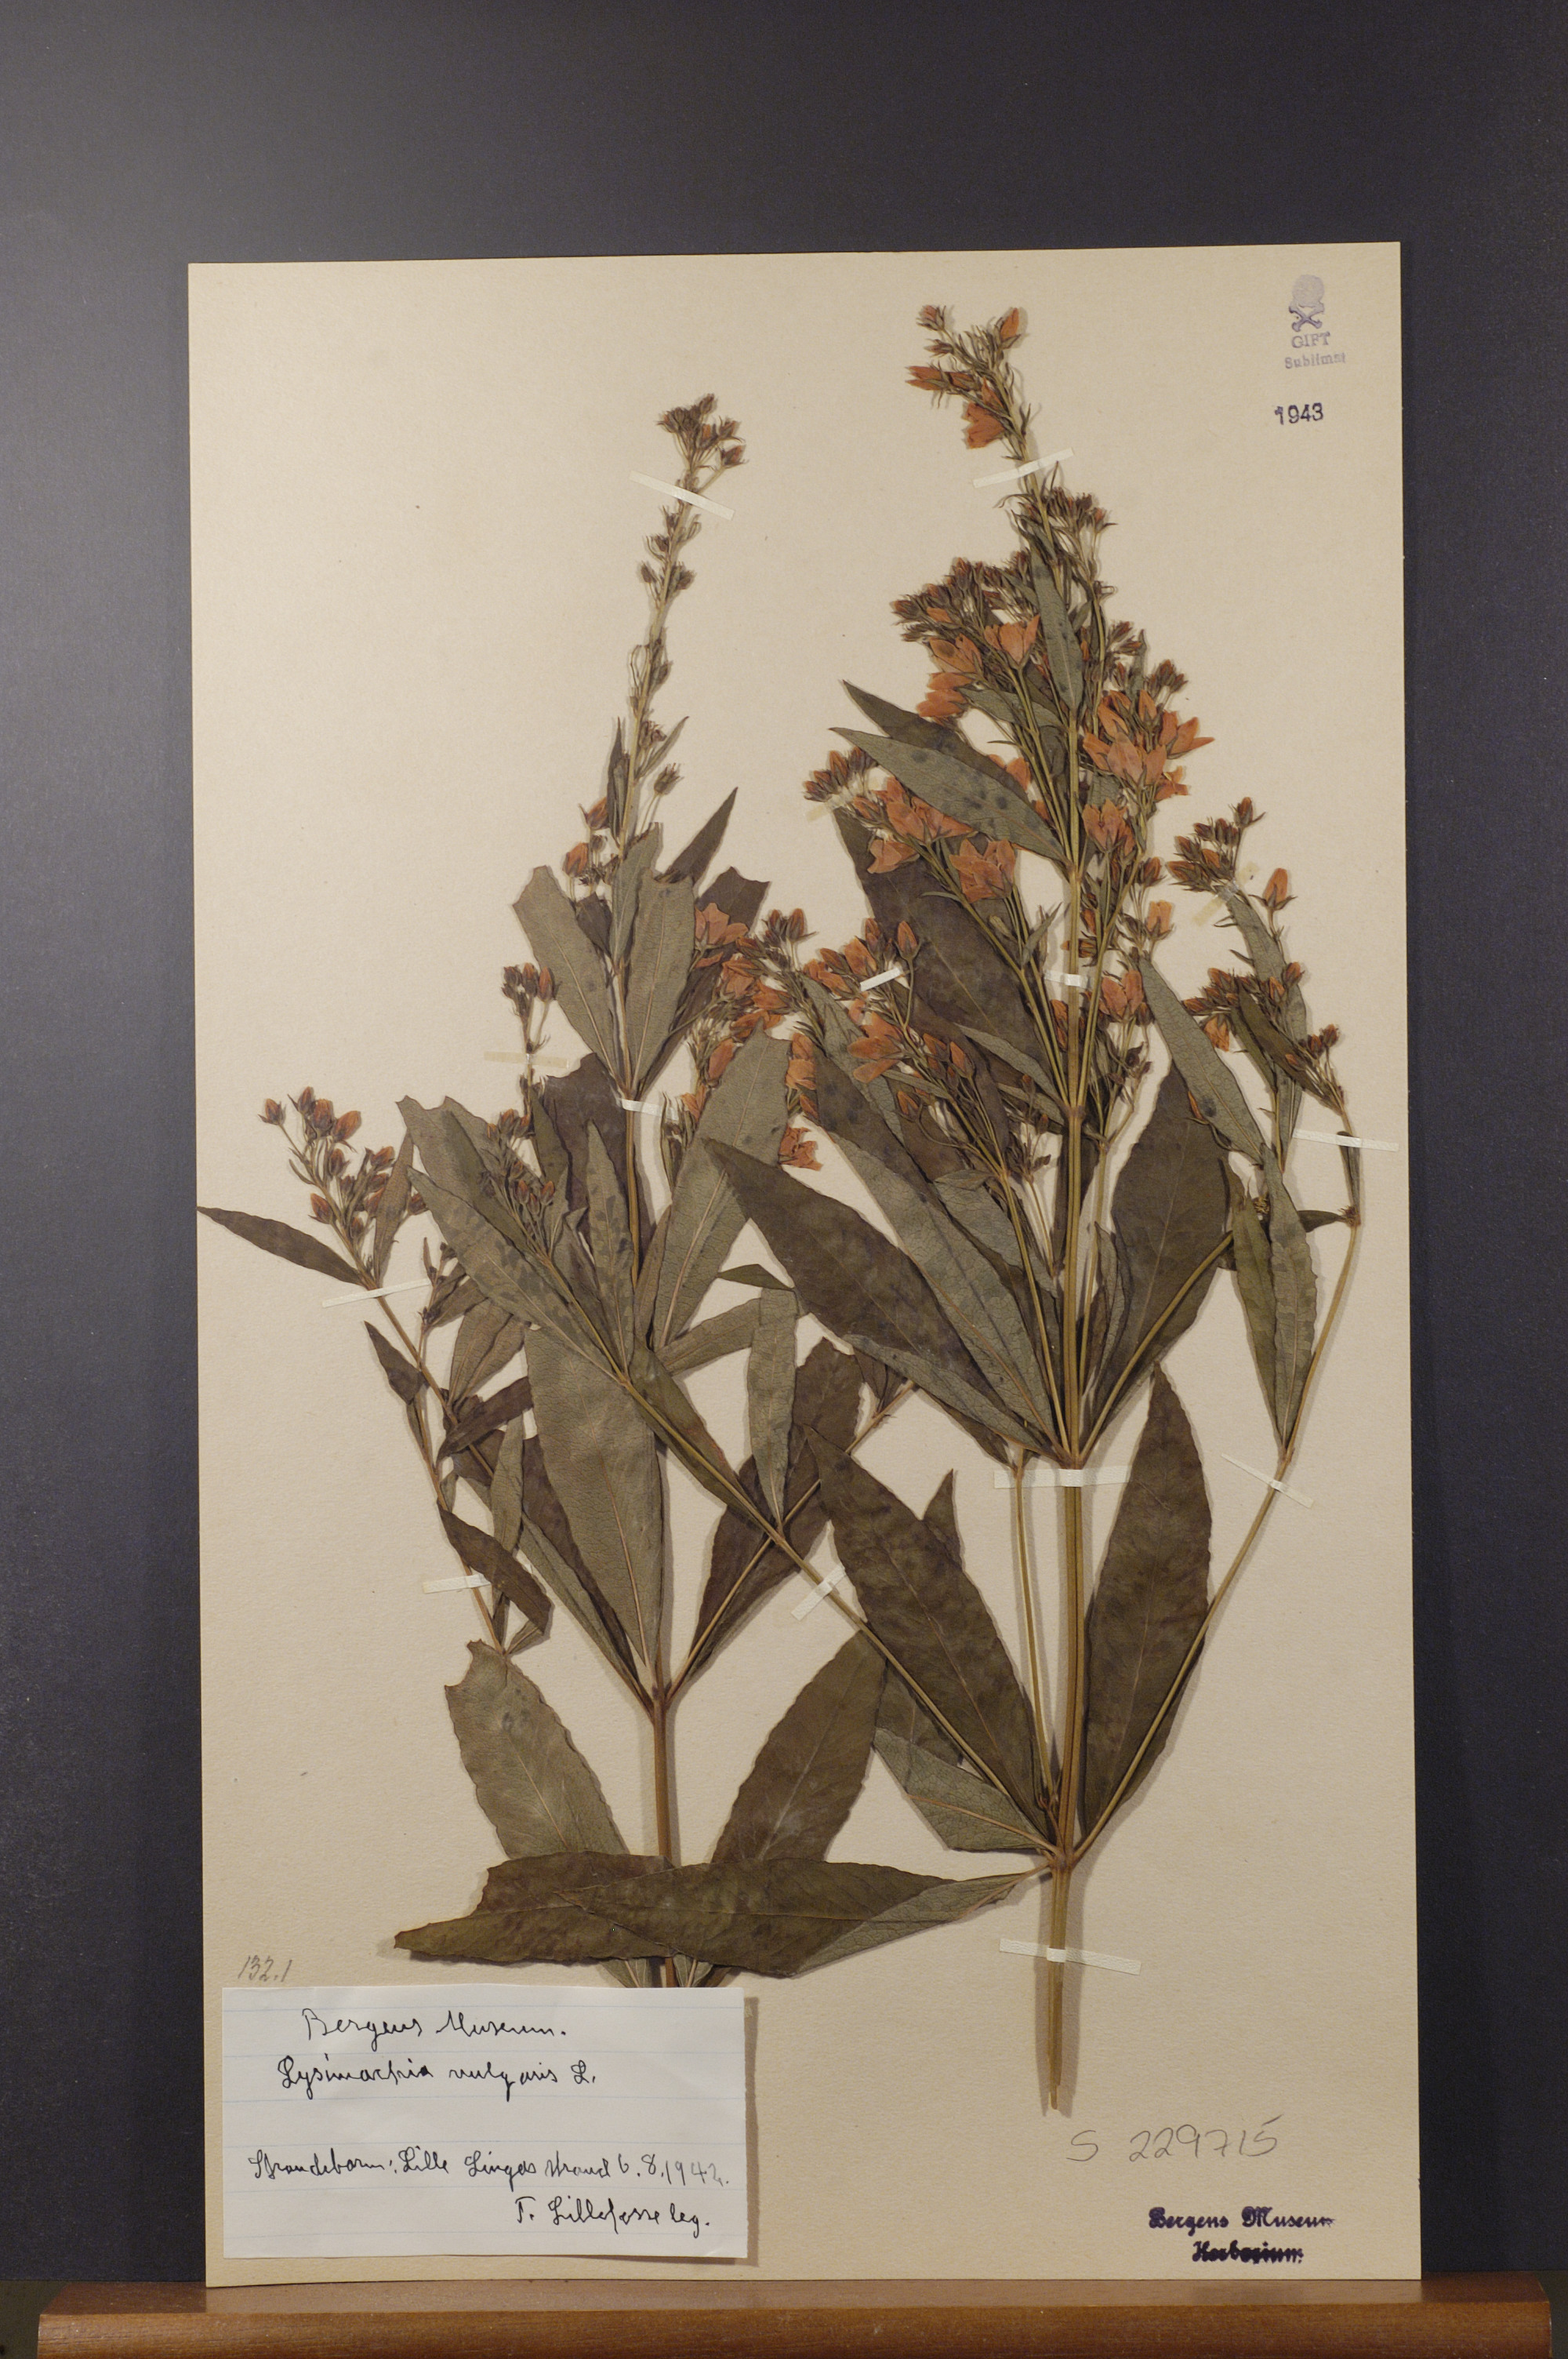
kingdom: Plantae
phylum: Tracheophyta
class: Magnoliopsida
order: Ericales
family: Primulaceae
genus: Lysimachia
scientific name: Lysimachia vulgaris
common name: Yellow loosestrife
